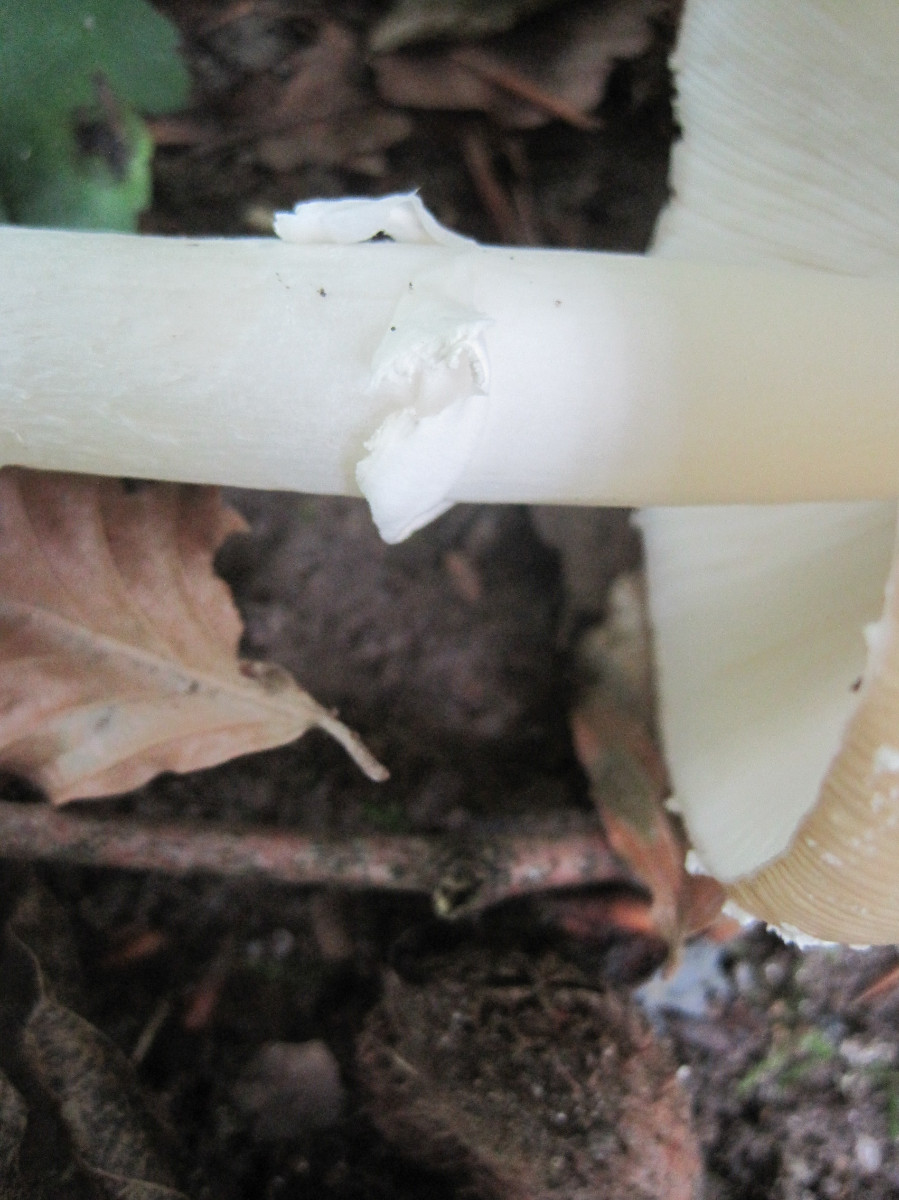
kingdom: Fungi
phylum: Basidiomycota
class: Agaricomycetes
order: Agaricales
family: Amanitaceae
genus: Amanita
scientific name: Amanita pantherina
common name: panter-fluesvamp
